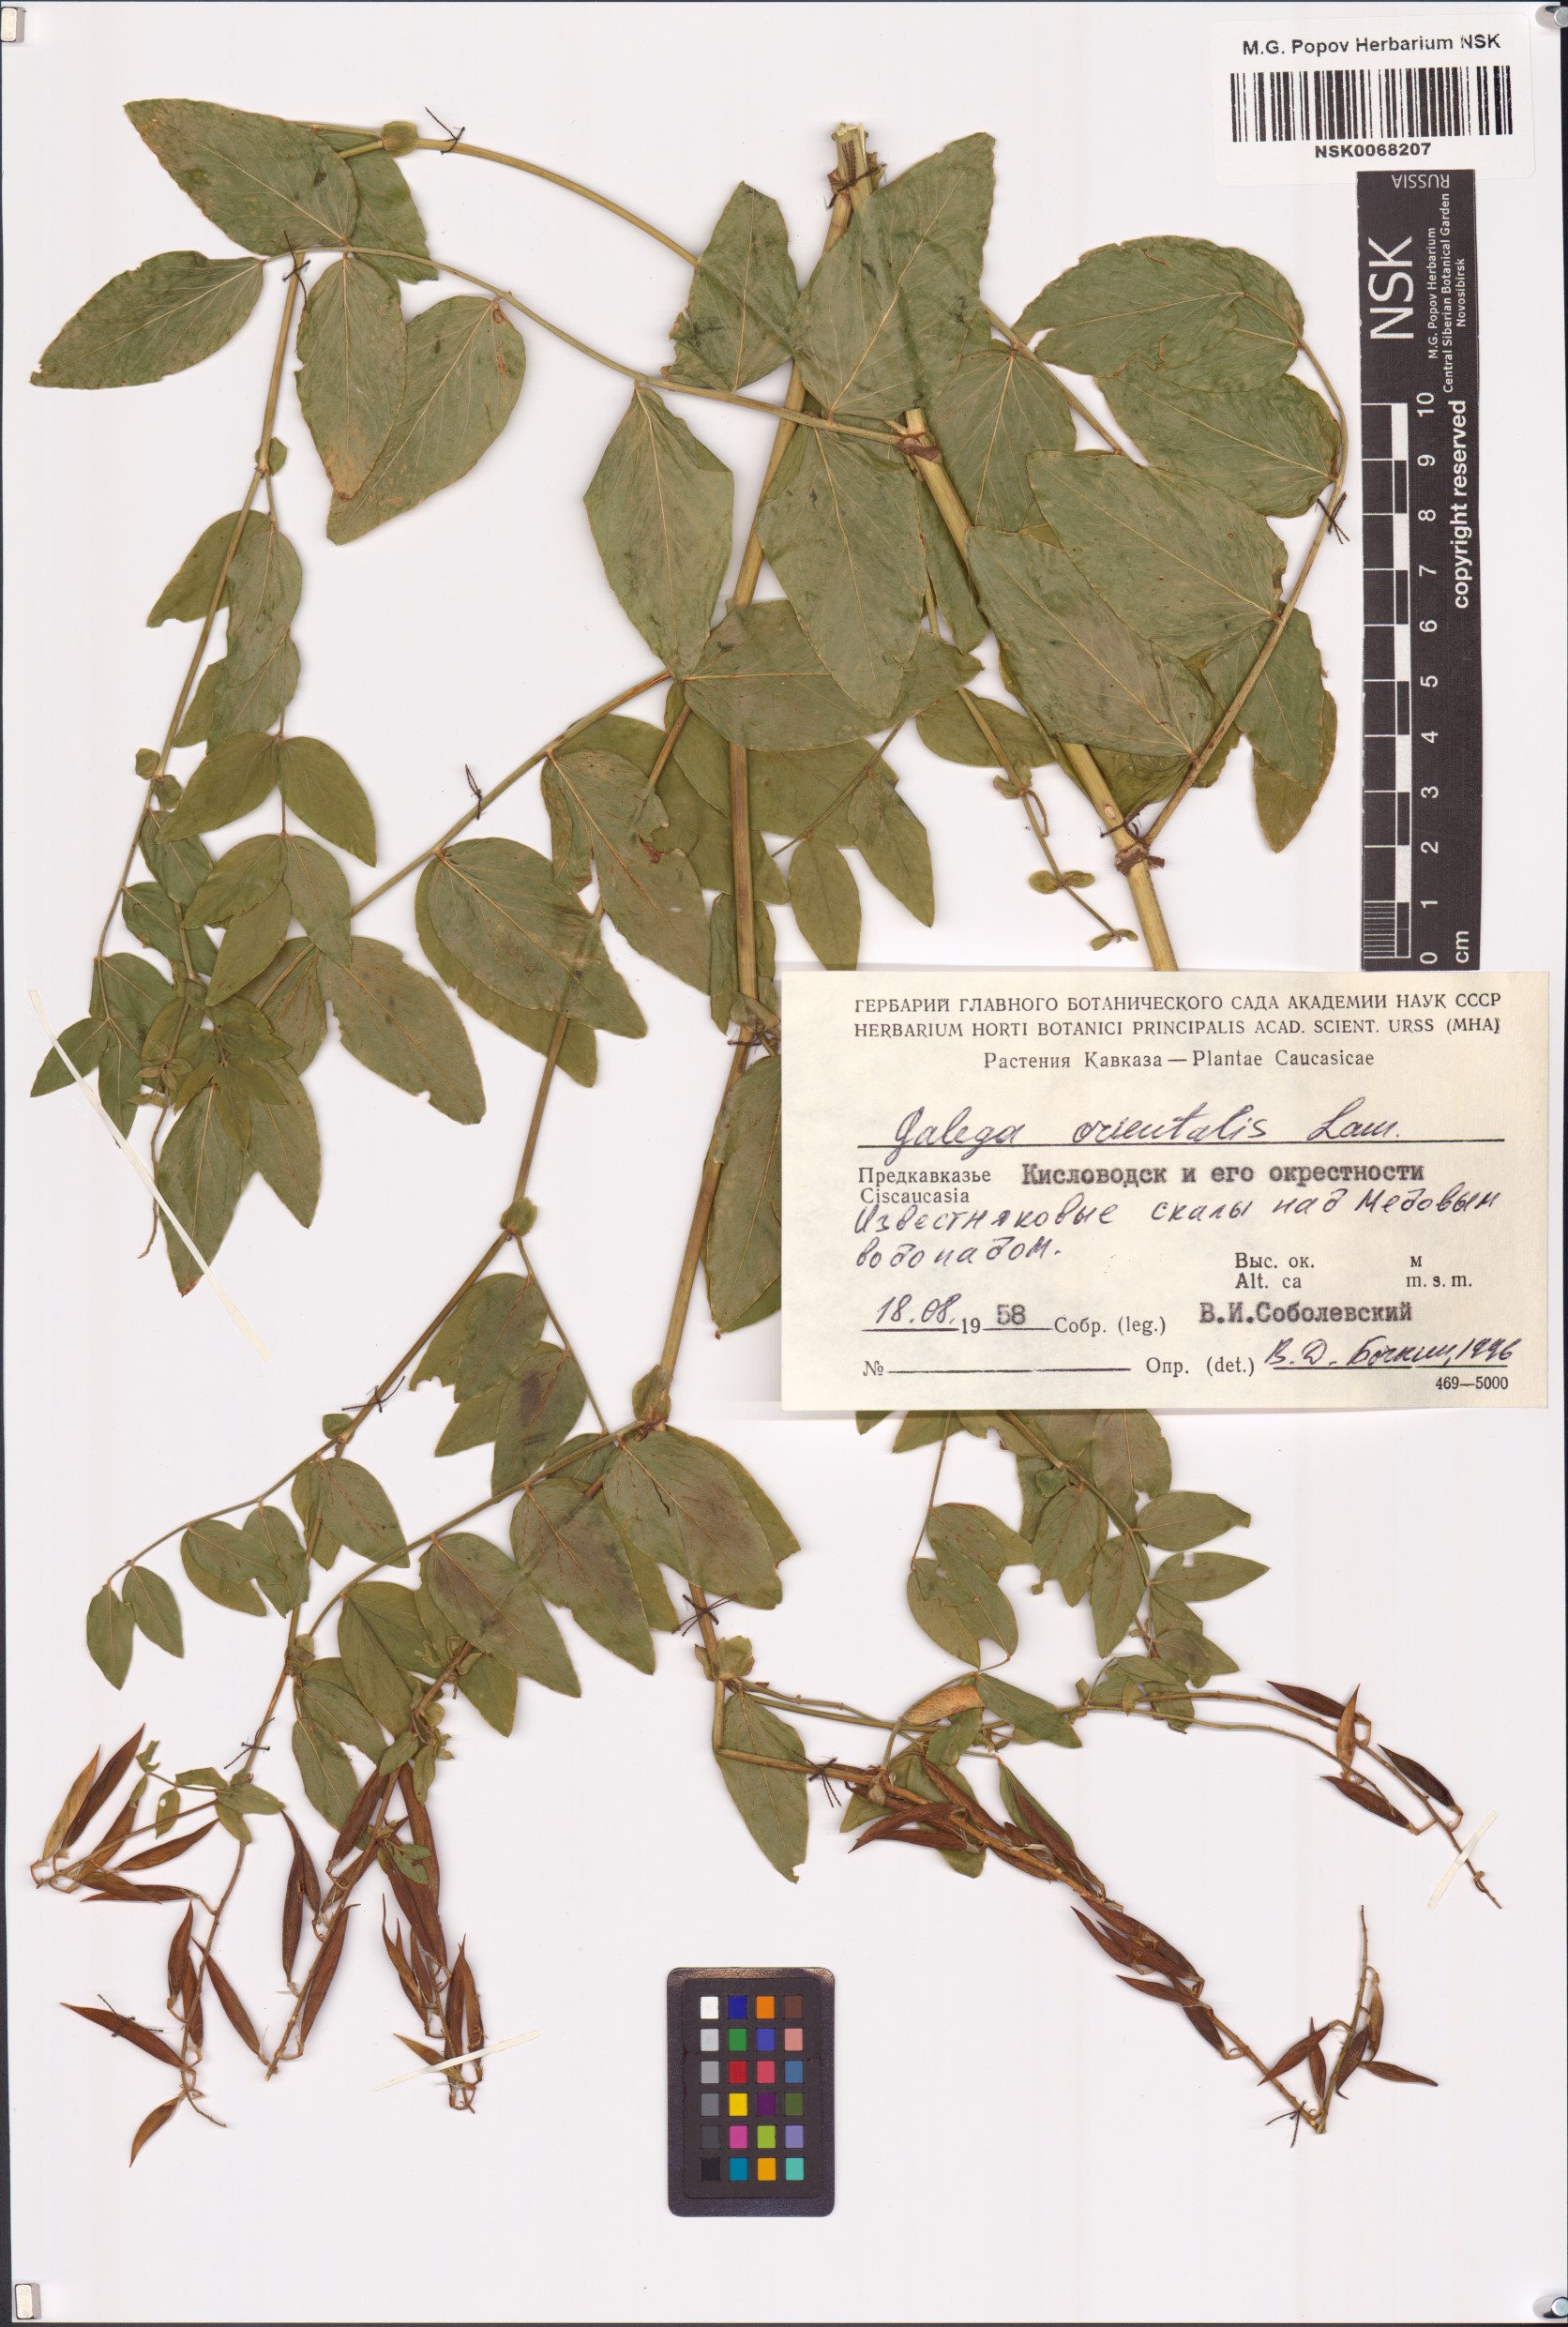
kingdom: Plantae
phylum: Tracheophyta
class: Magnoliopsida
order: Fabales
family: Fabaceae
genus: Galega
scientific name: Galega orientalis
